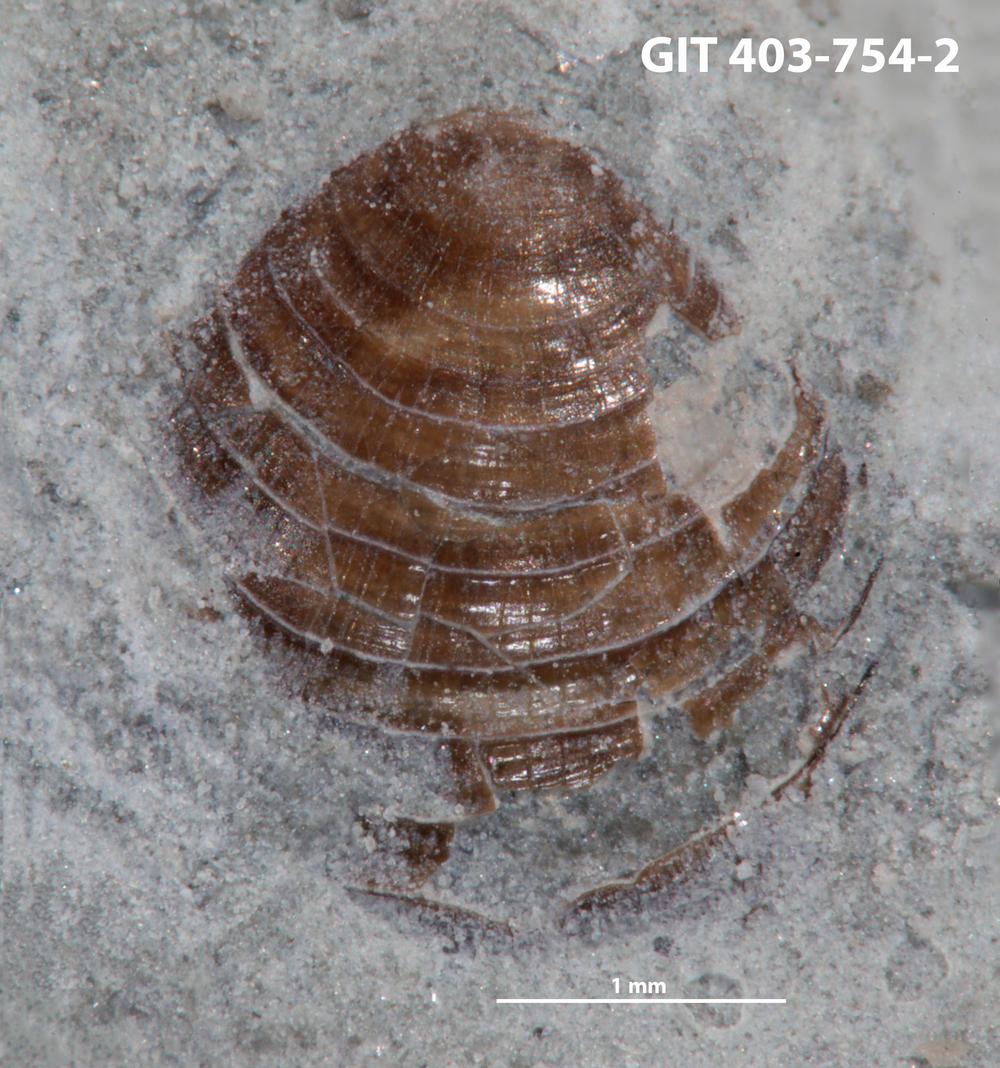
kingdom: Animalia
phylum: Brachiopoda
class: Lingulata
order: Lingulida
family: Discinidae
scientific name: Discinidae
